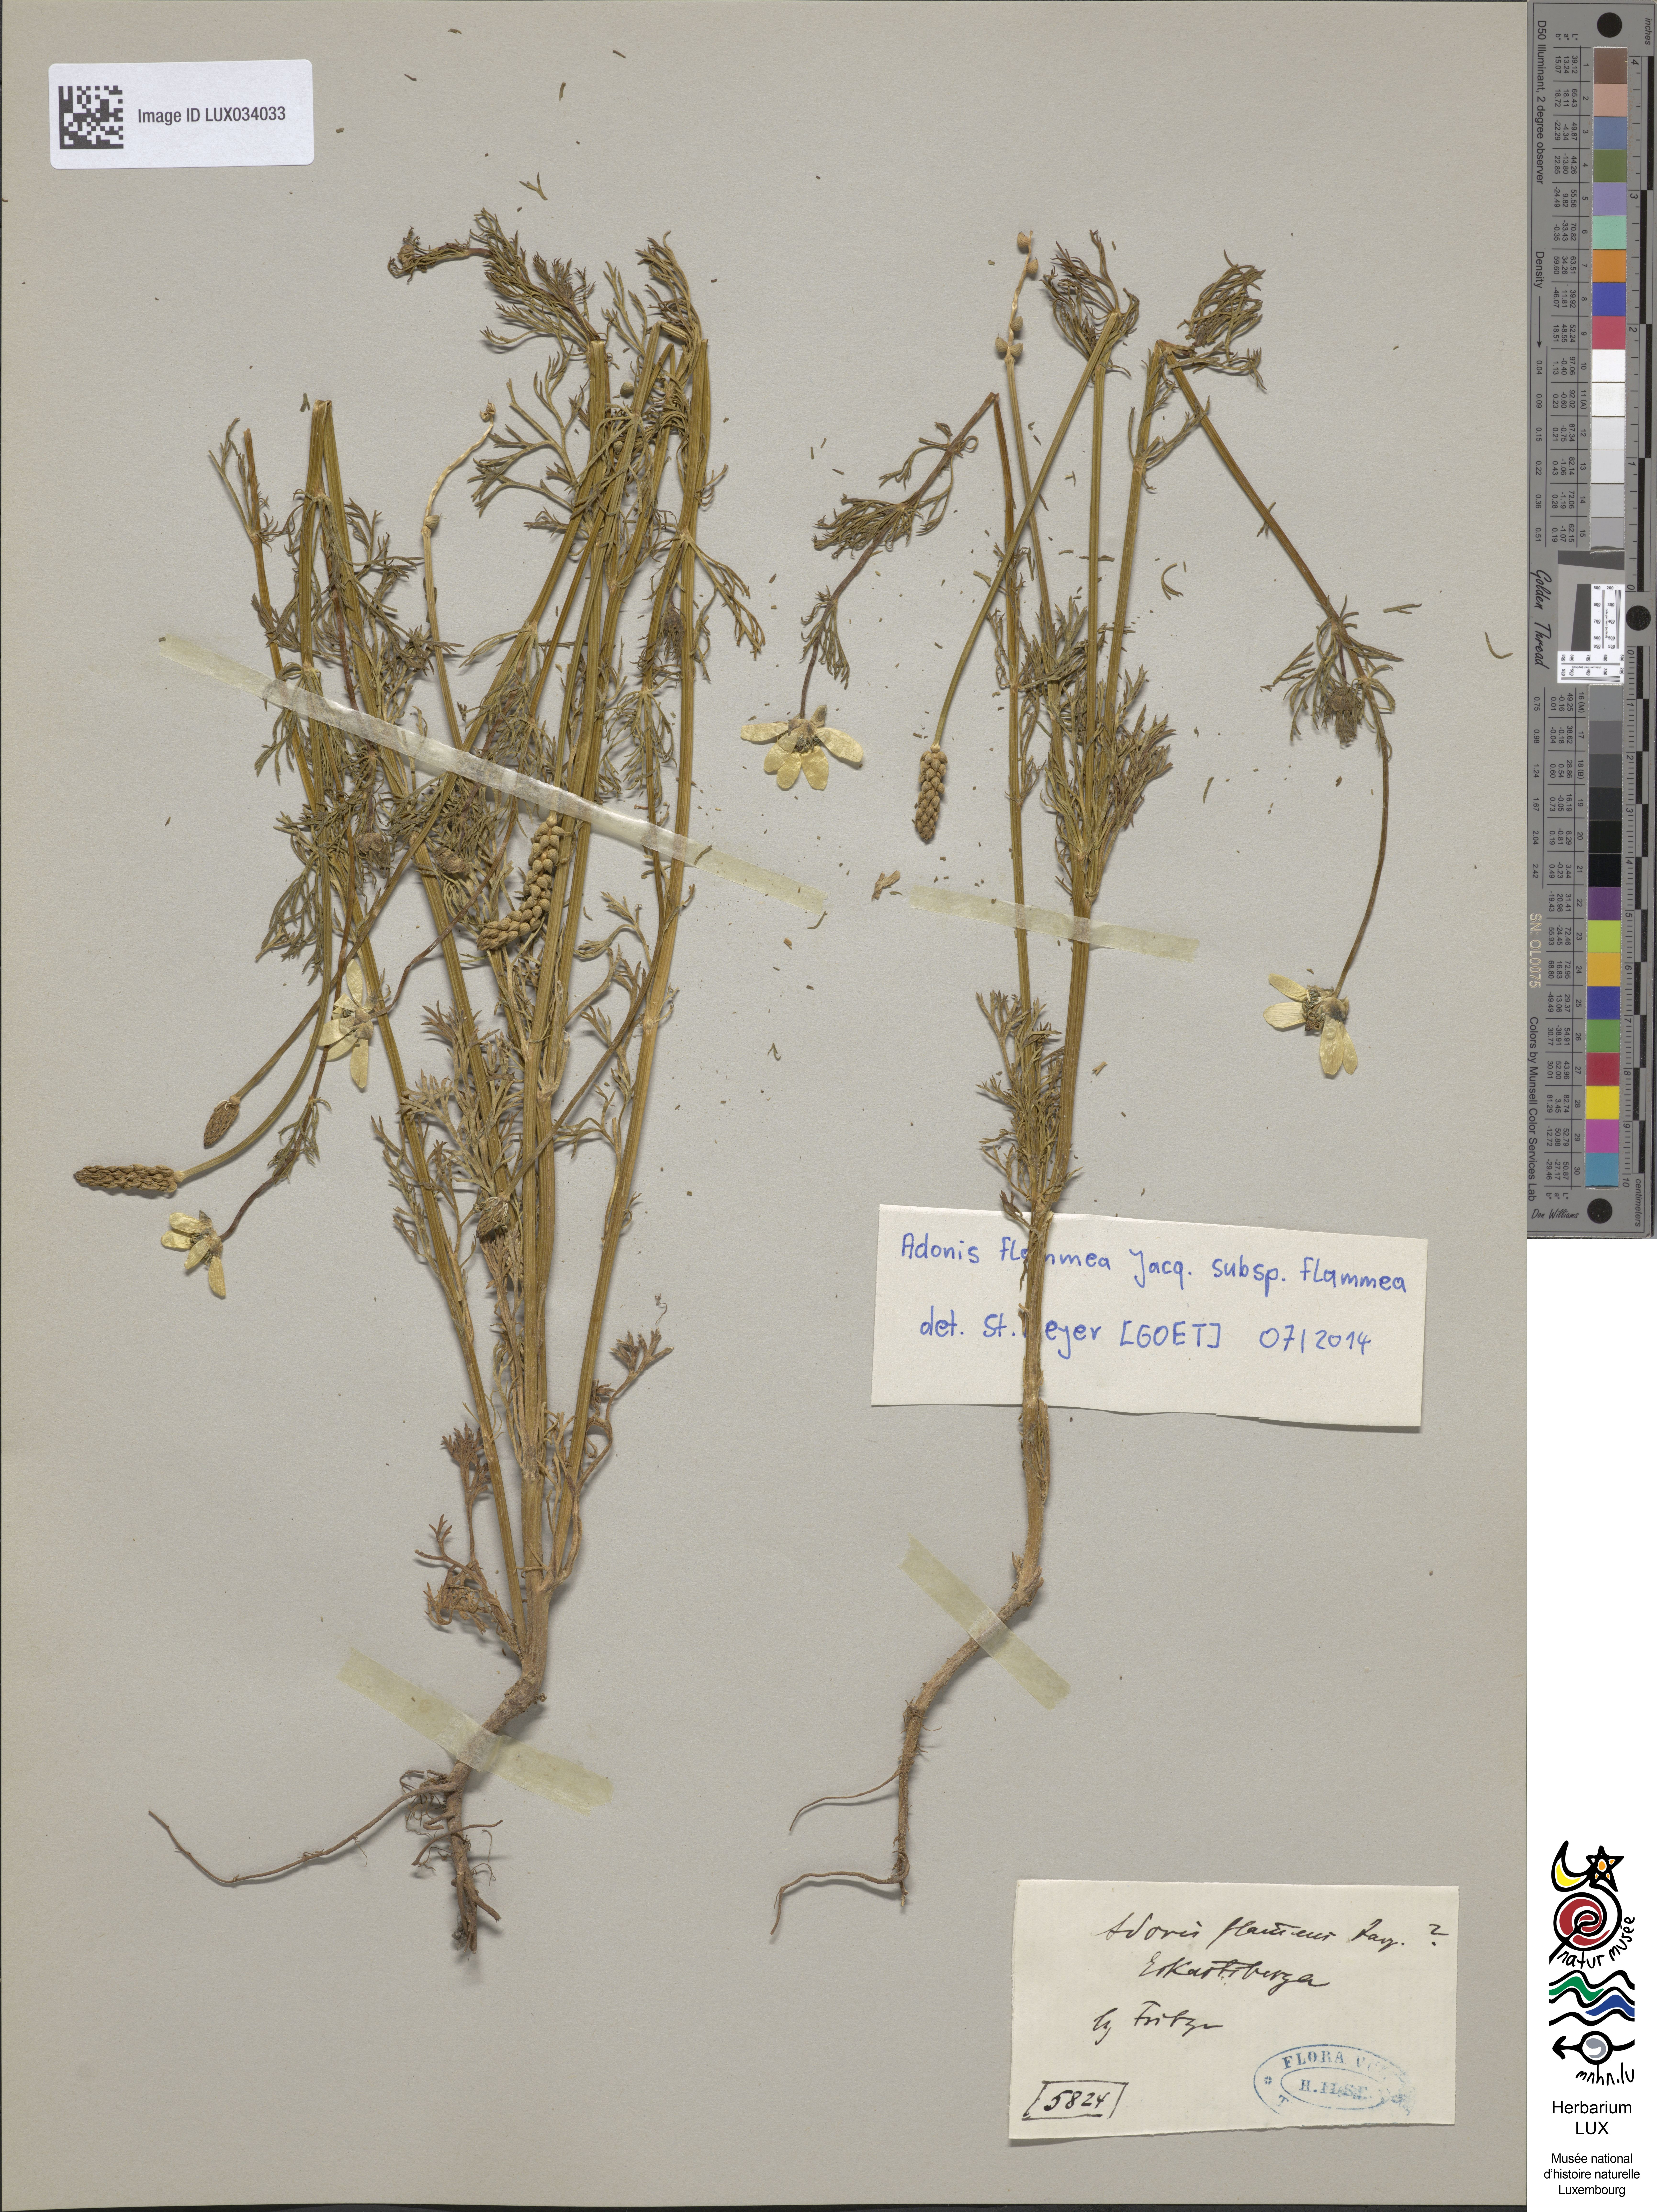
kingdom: Plantae
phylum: Tracheophyta
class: Magnoliopsida
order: Ranunculales
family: Ranunculaceae
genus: Adonis
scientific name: Adonis flammea
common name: Large pheasant's-eye
